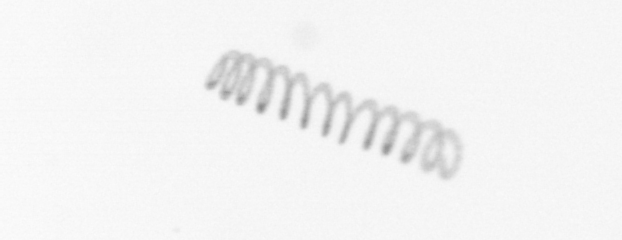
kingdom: Chromista
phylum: Ochrophyta
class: Bacillariophyceae
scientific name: Bacillariophyceae
